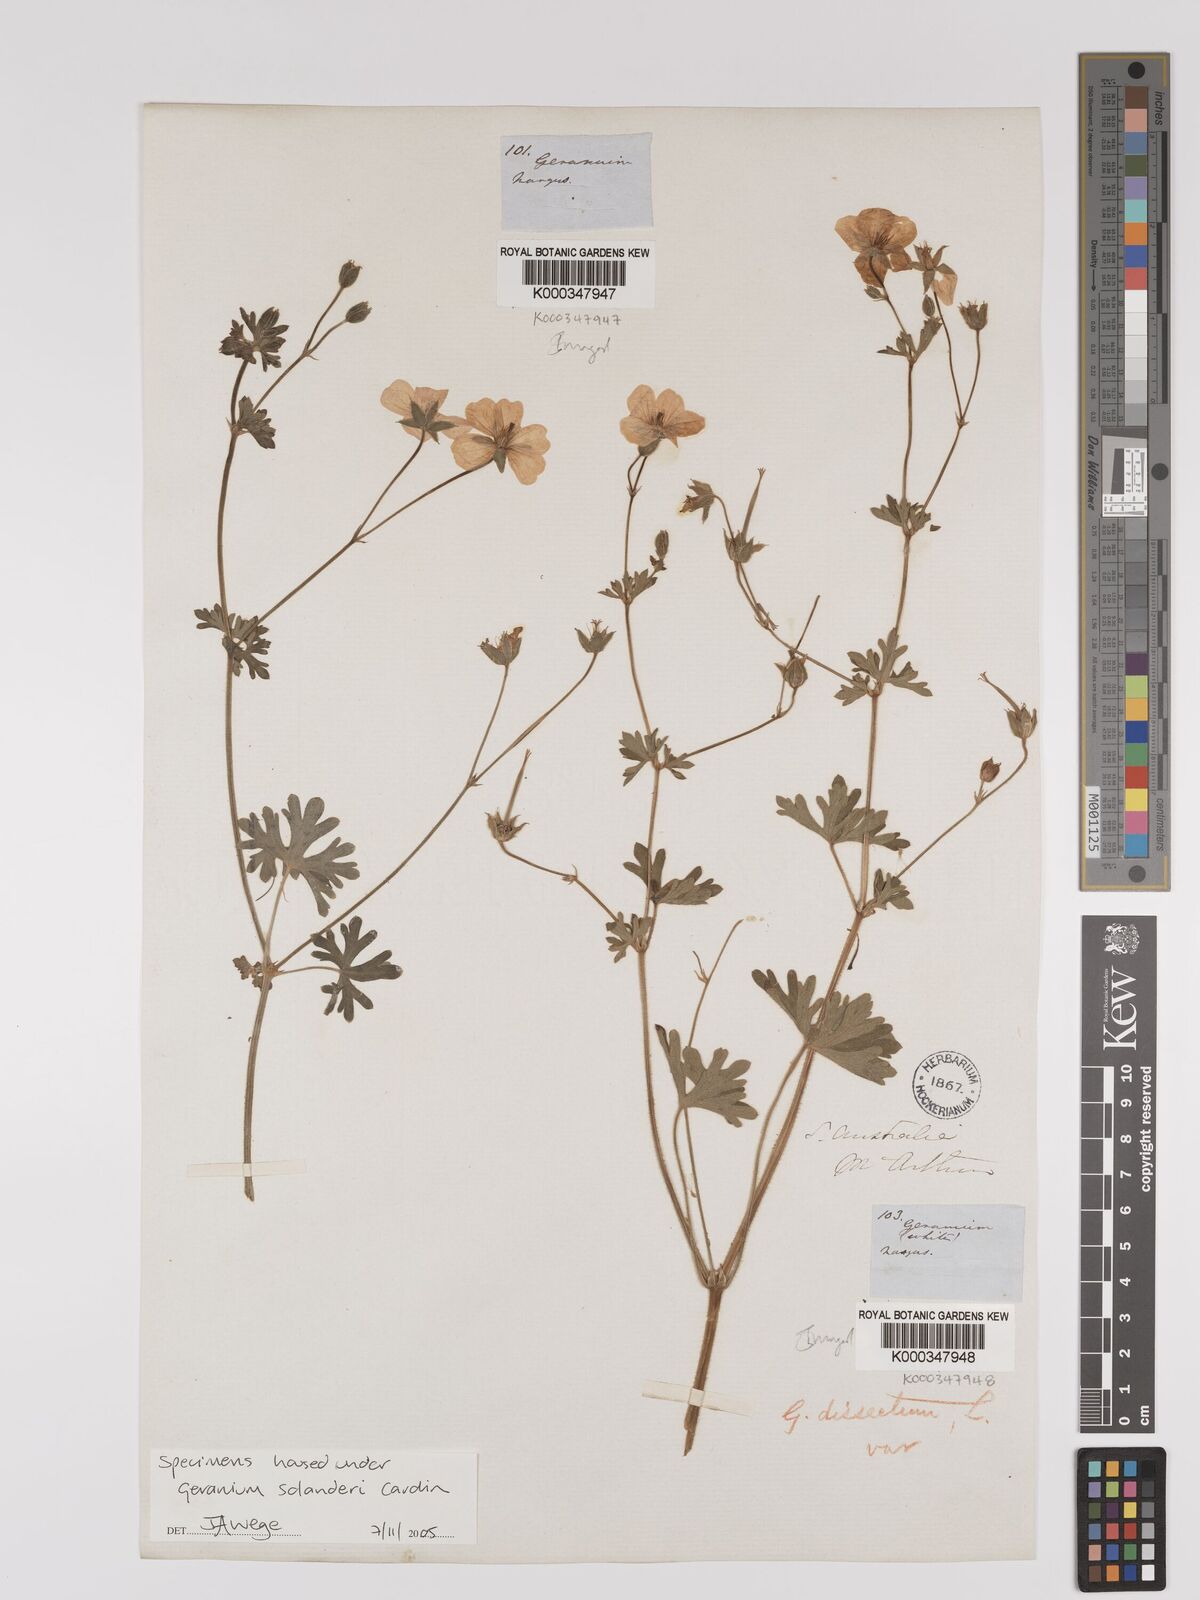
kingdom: Plantae
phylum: Tracheophyta
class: Magnoliopsida
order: Geraniales
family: Geraniaceae
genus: Geranium
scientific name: Geranium solanderi
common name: Solander's geranium
